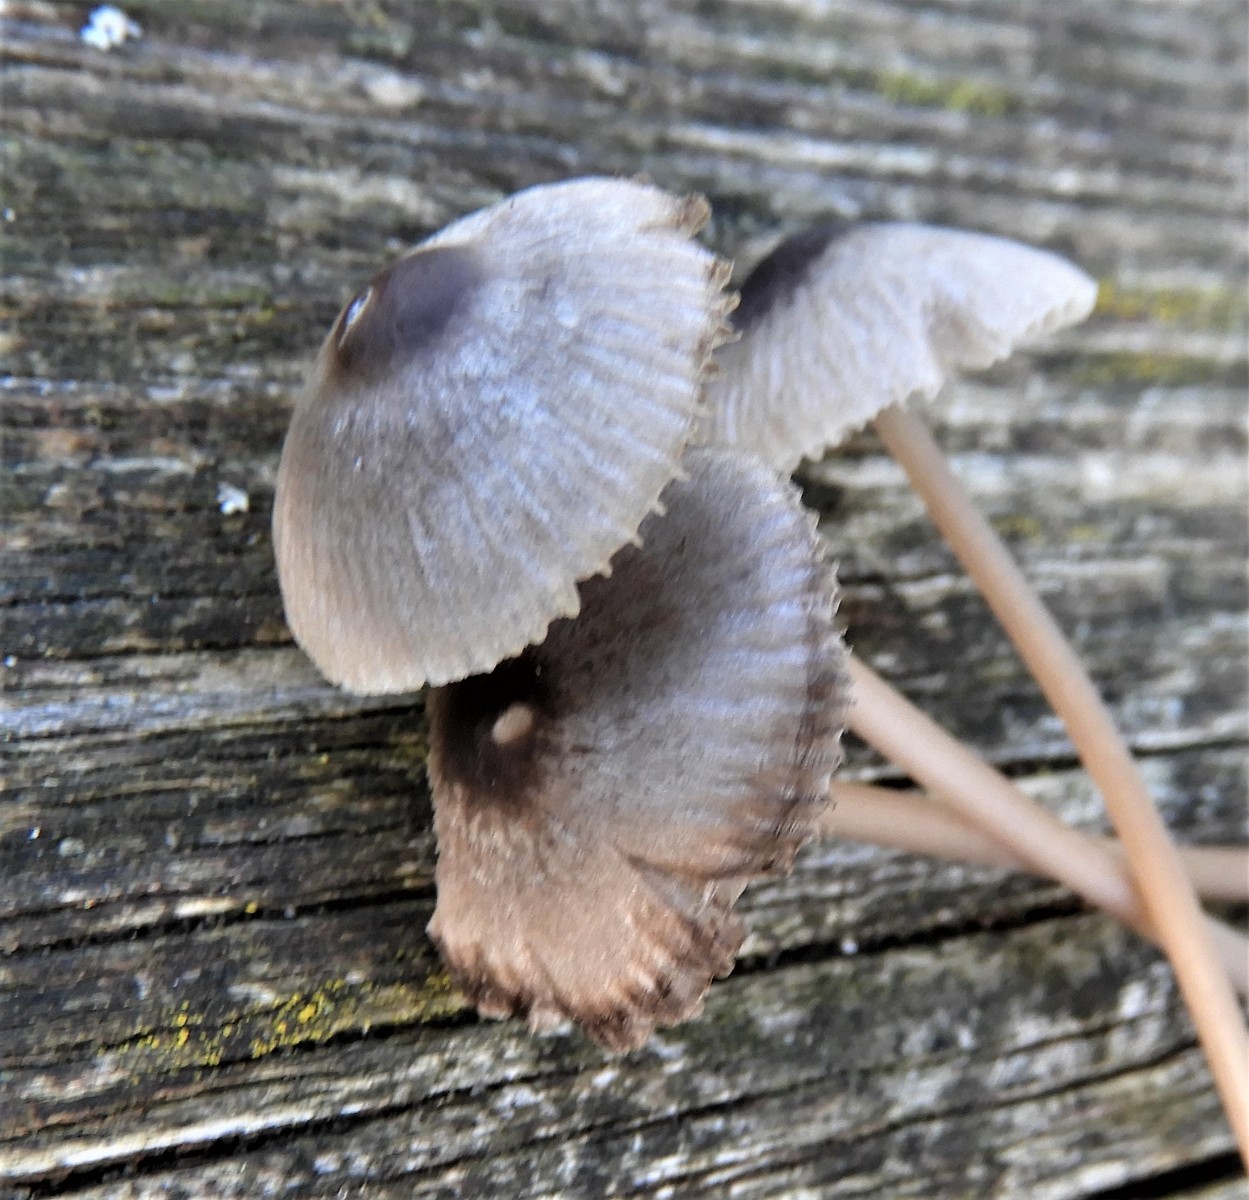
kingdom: Fungi
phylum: Basidiomycota
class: Agaricomycetes
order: Agaricales
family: Mycenaceae
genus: Mycena
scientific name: Mycena aetites
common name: plæne-huesvamp
